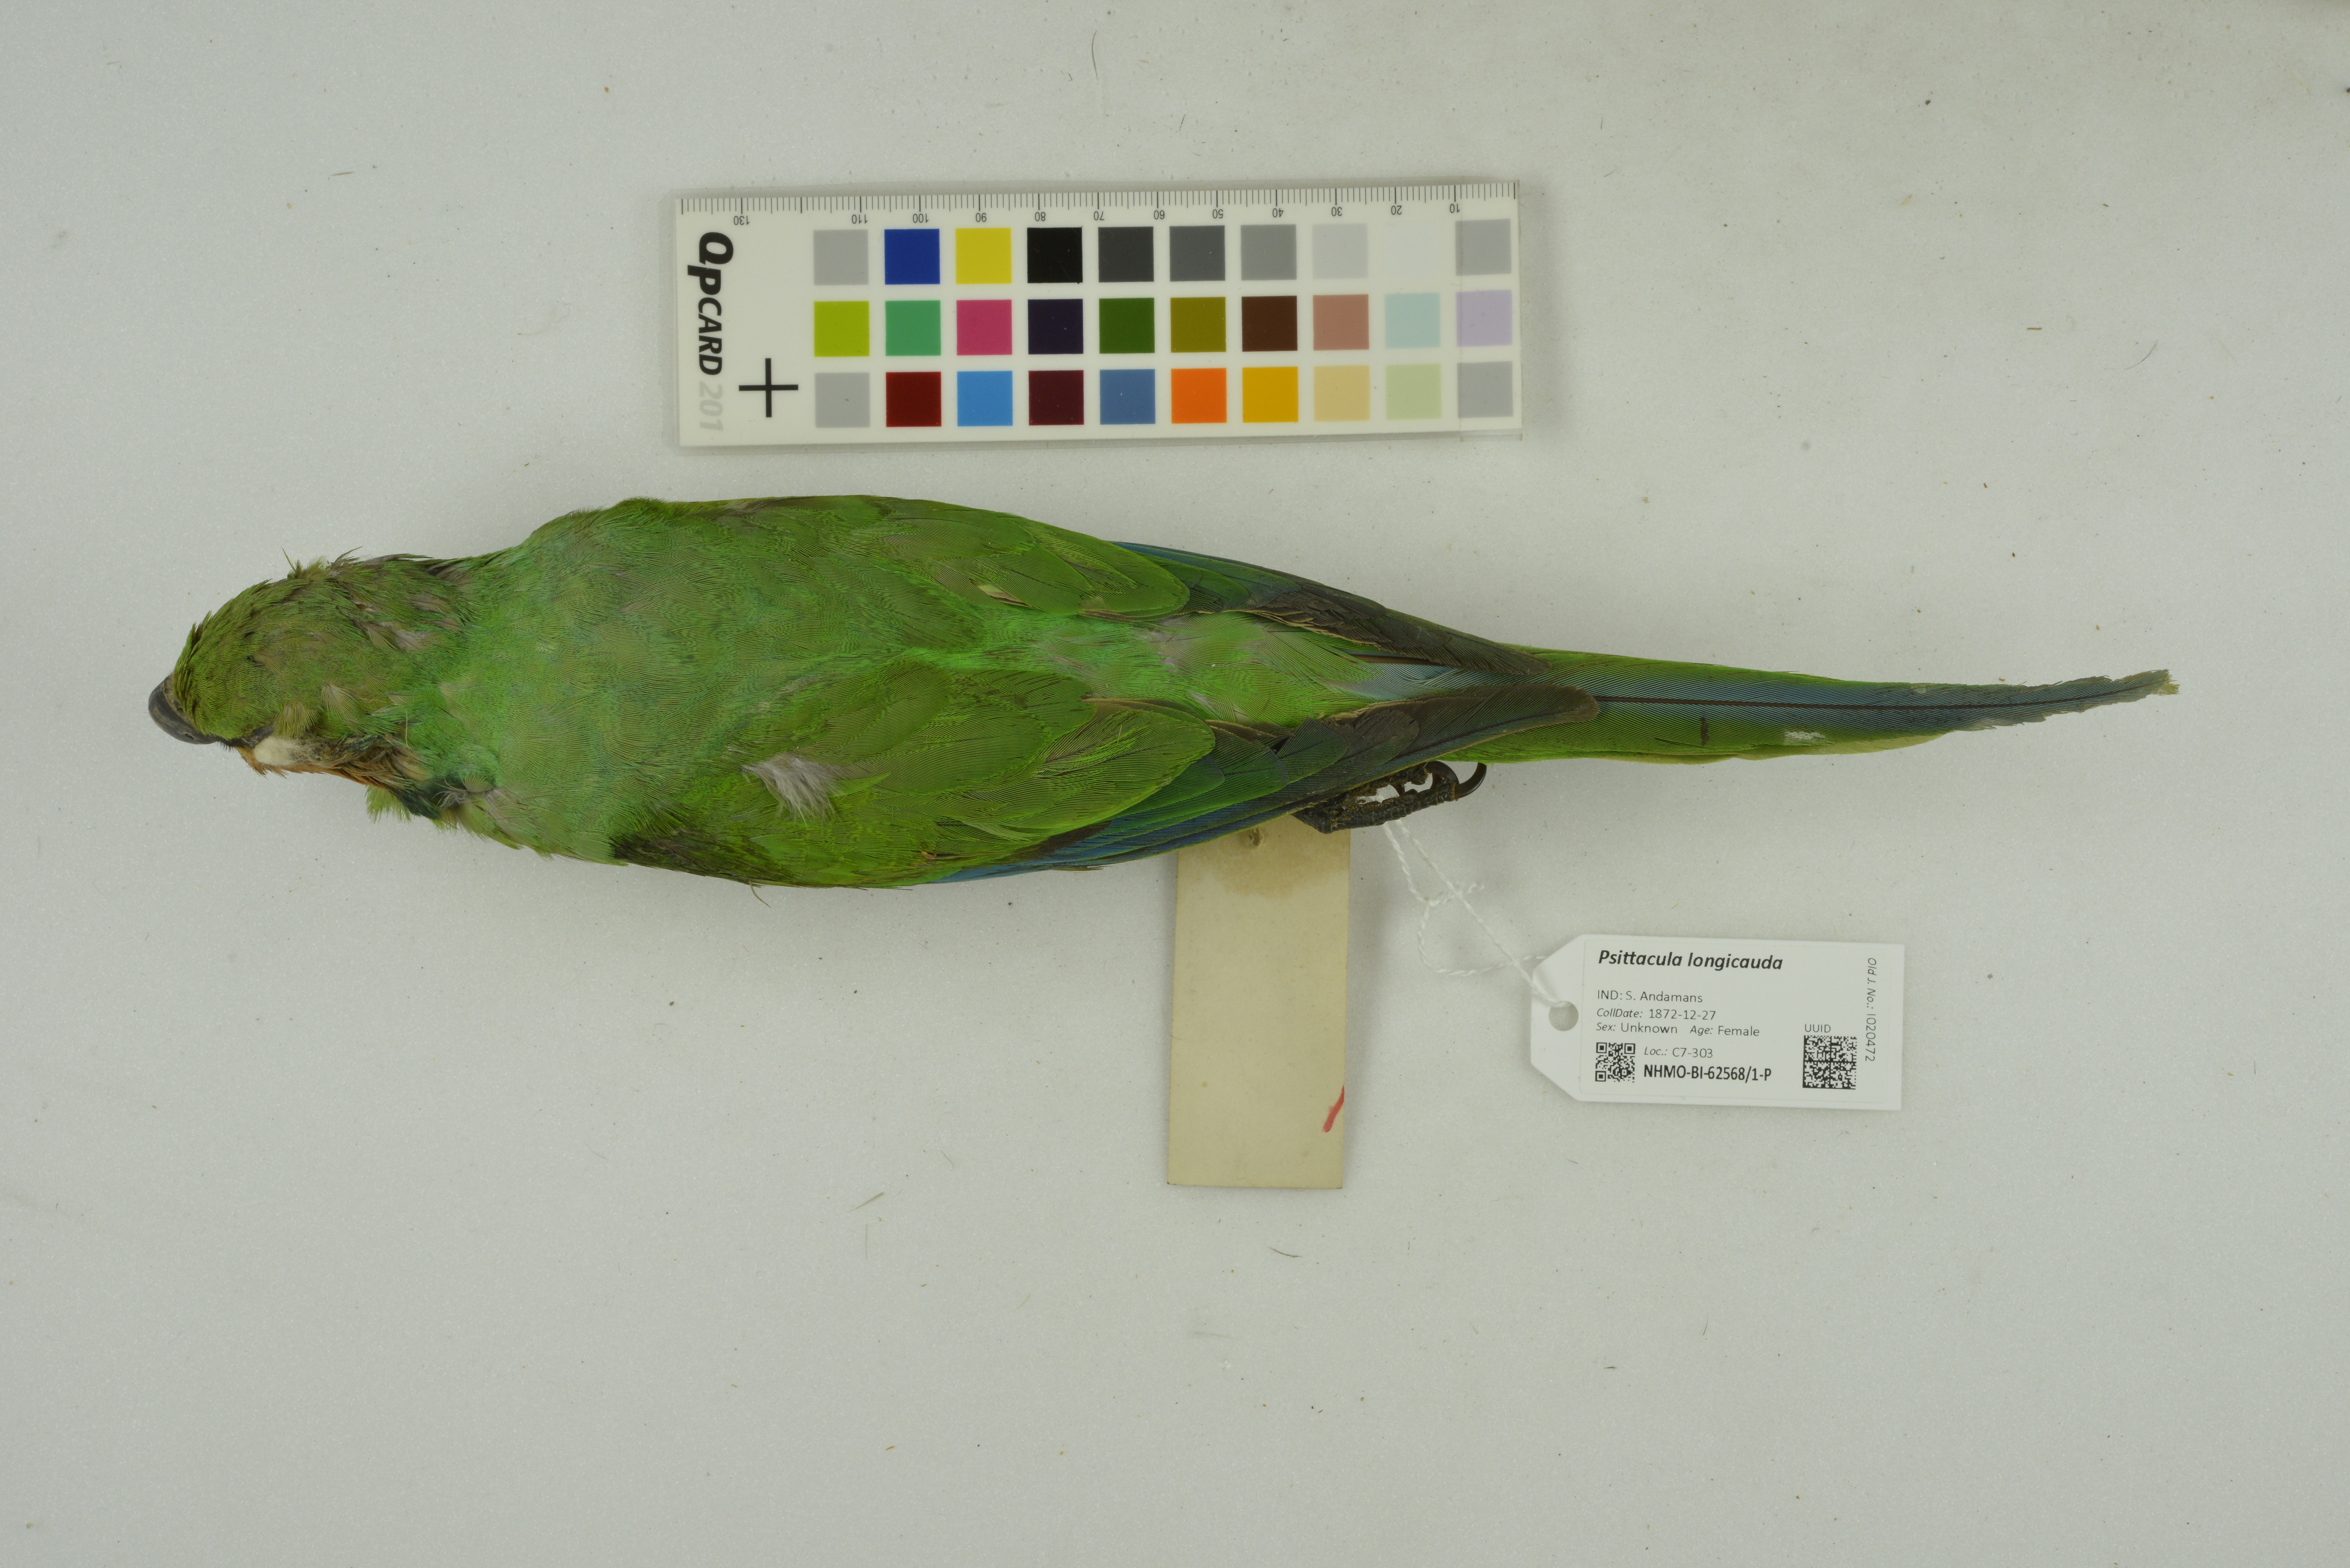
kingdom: Animalia
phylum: Chordata
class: Aves
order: Psittaciformes
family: Psittacidae
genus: Psittacula
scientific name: Psittacula longicauda
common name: Long-tailed parakeet
